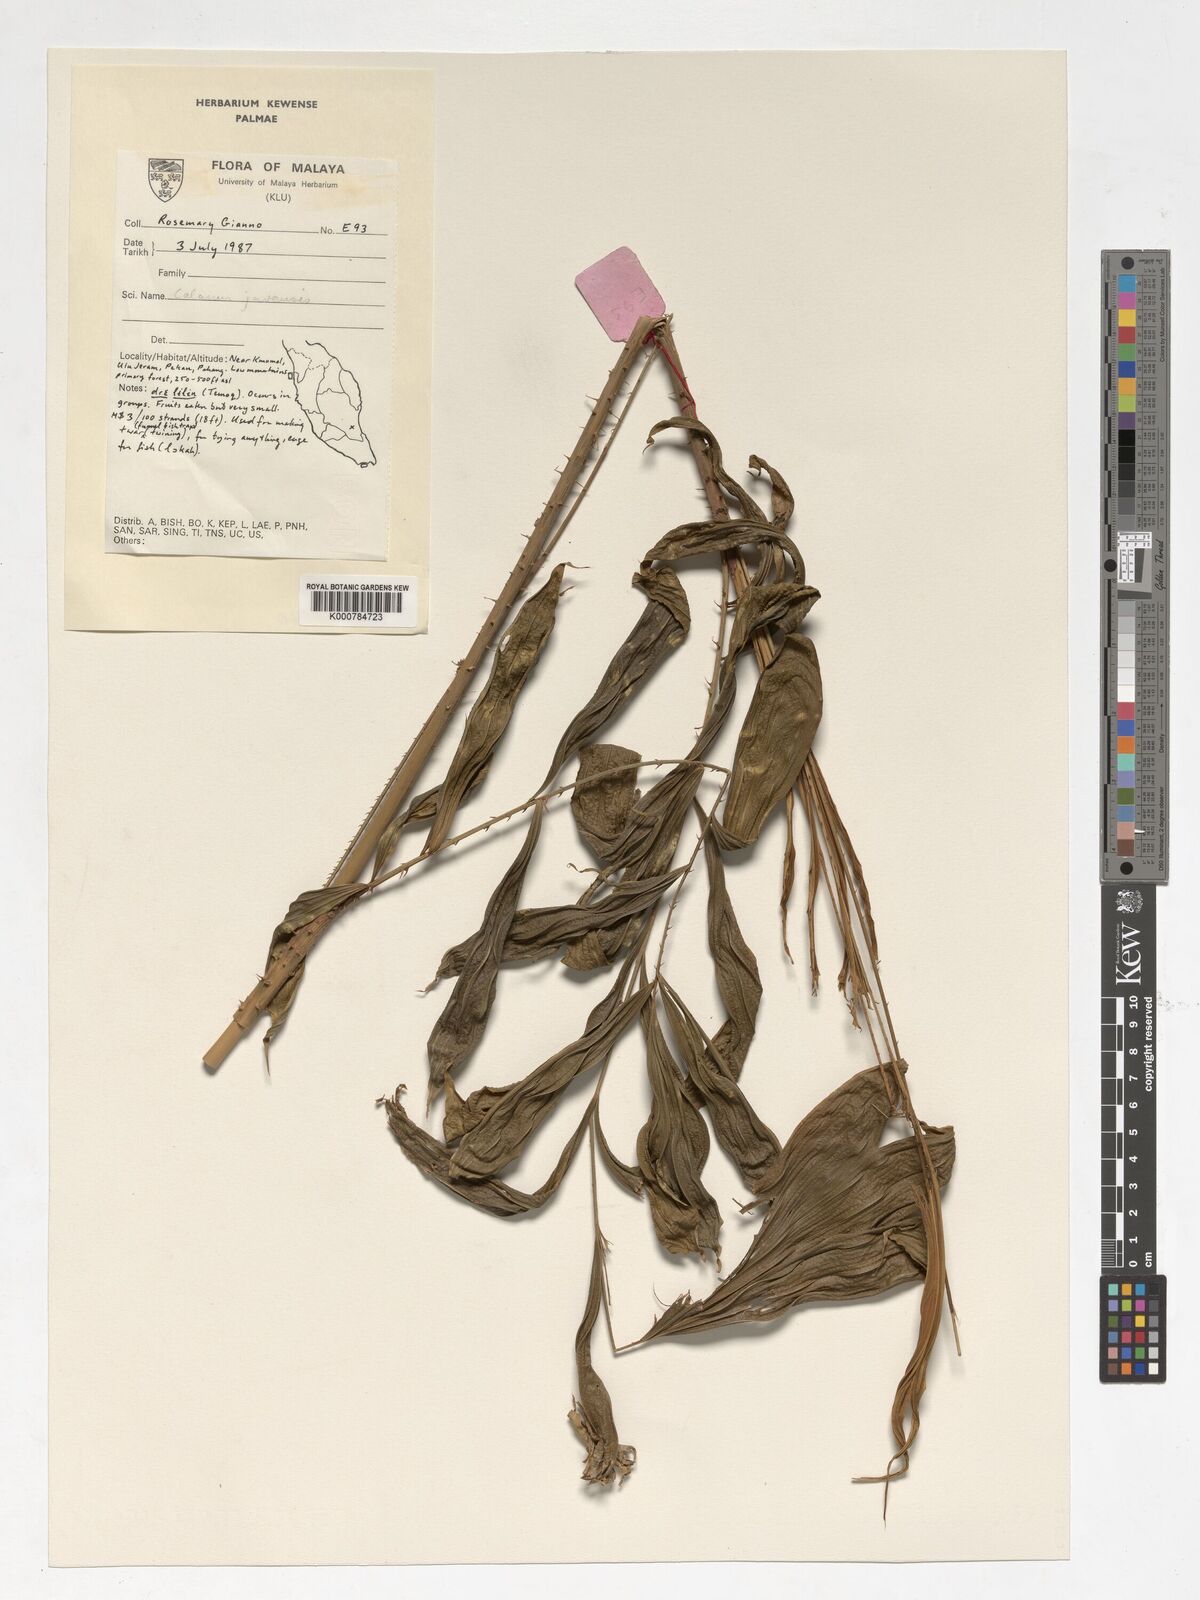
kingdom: Plantae
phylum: Tracheophyta
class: Liliopsida
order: Arecales
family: Arecaceae
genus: Calamus
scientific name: Calamus javensis
